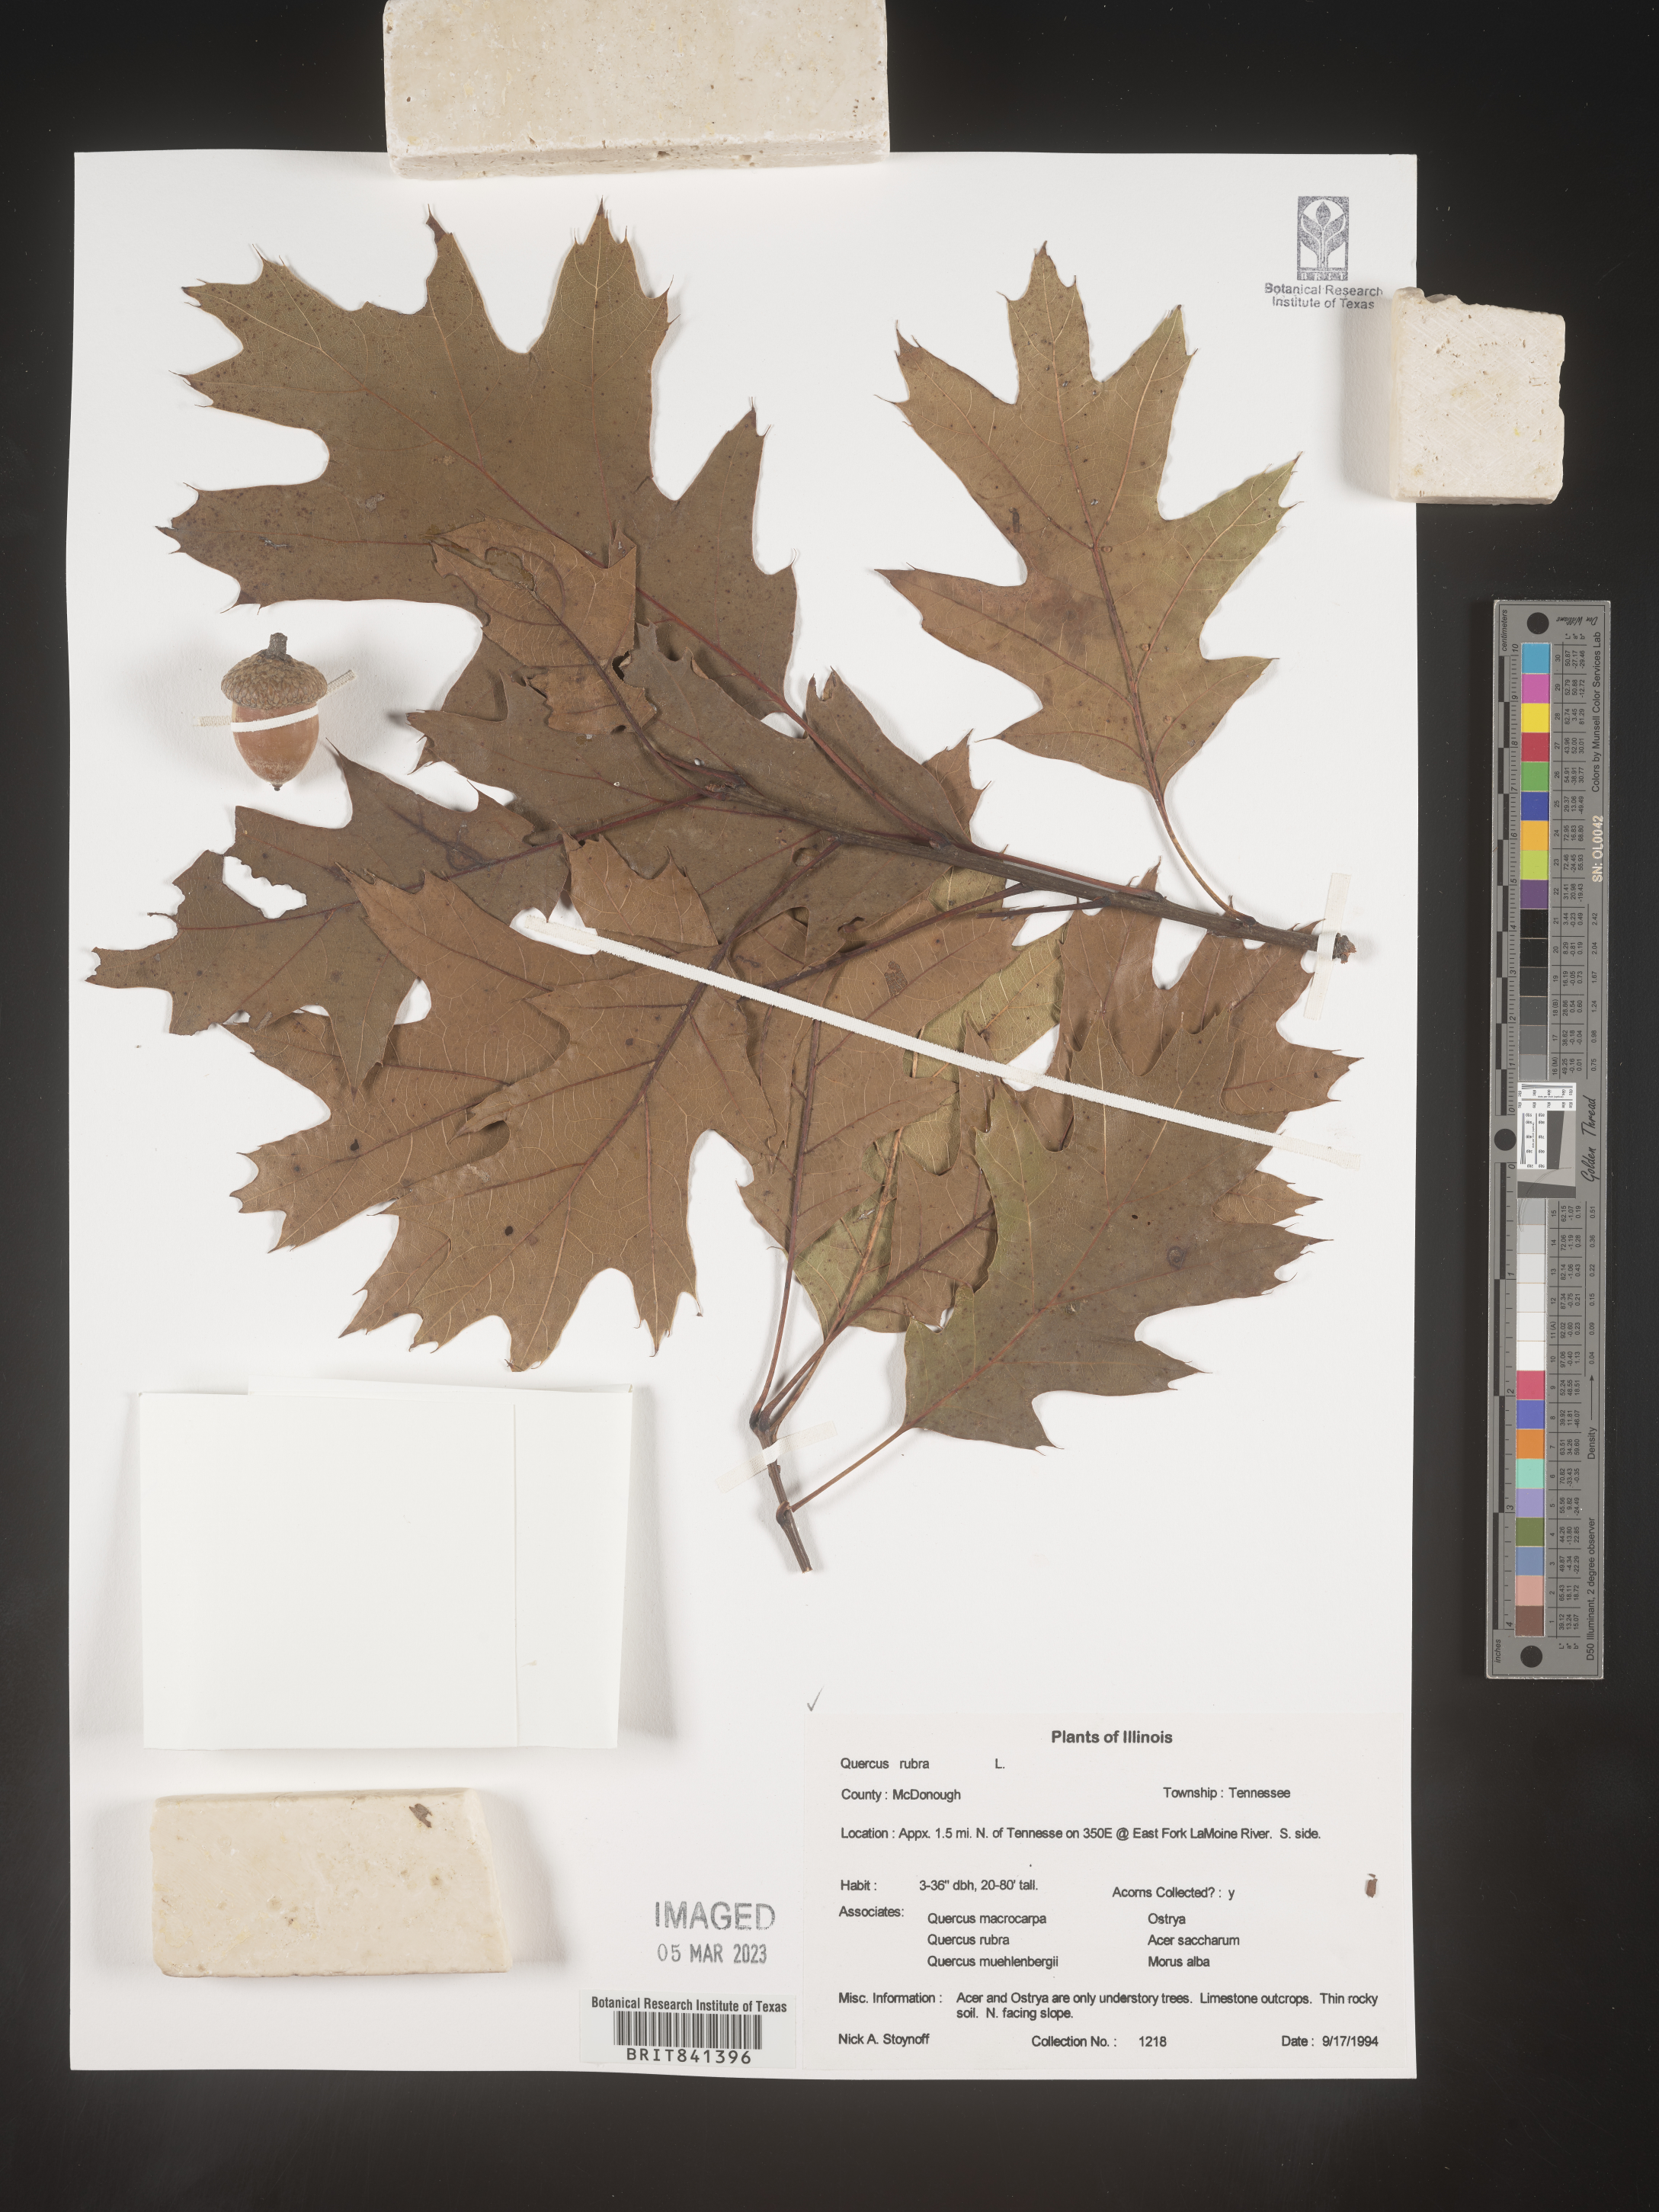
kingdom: Plantae
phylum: Tracheophyta
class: Magnoliopsida
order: Fagales
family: Fagaceae
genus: Quercus
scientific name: Quercus rubra
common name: Red oak
